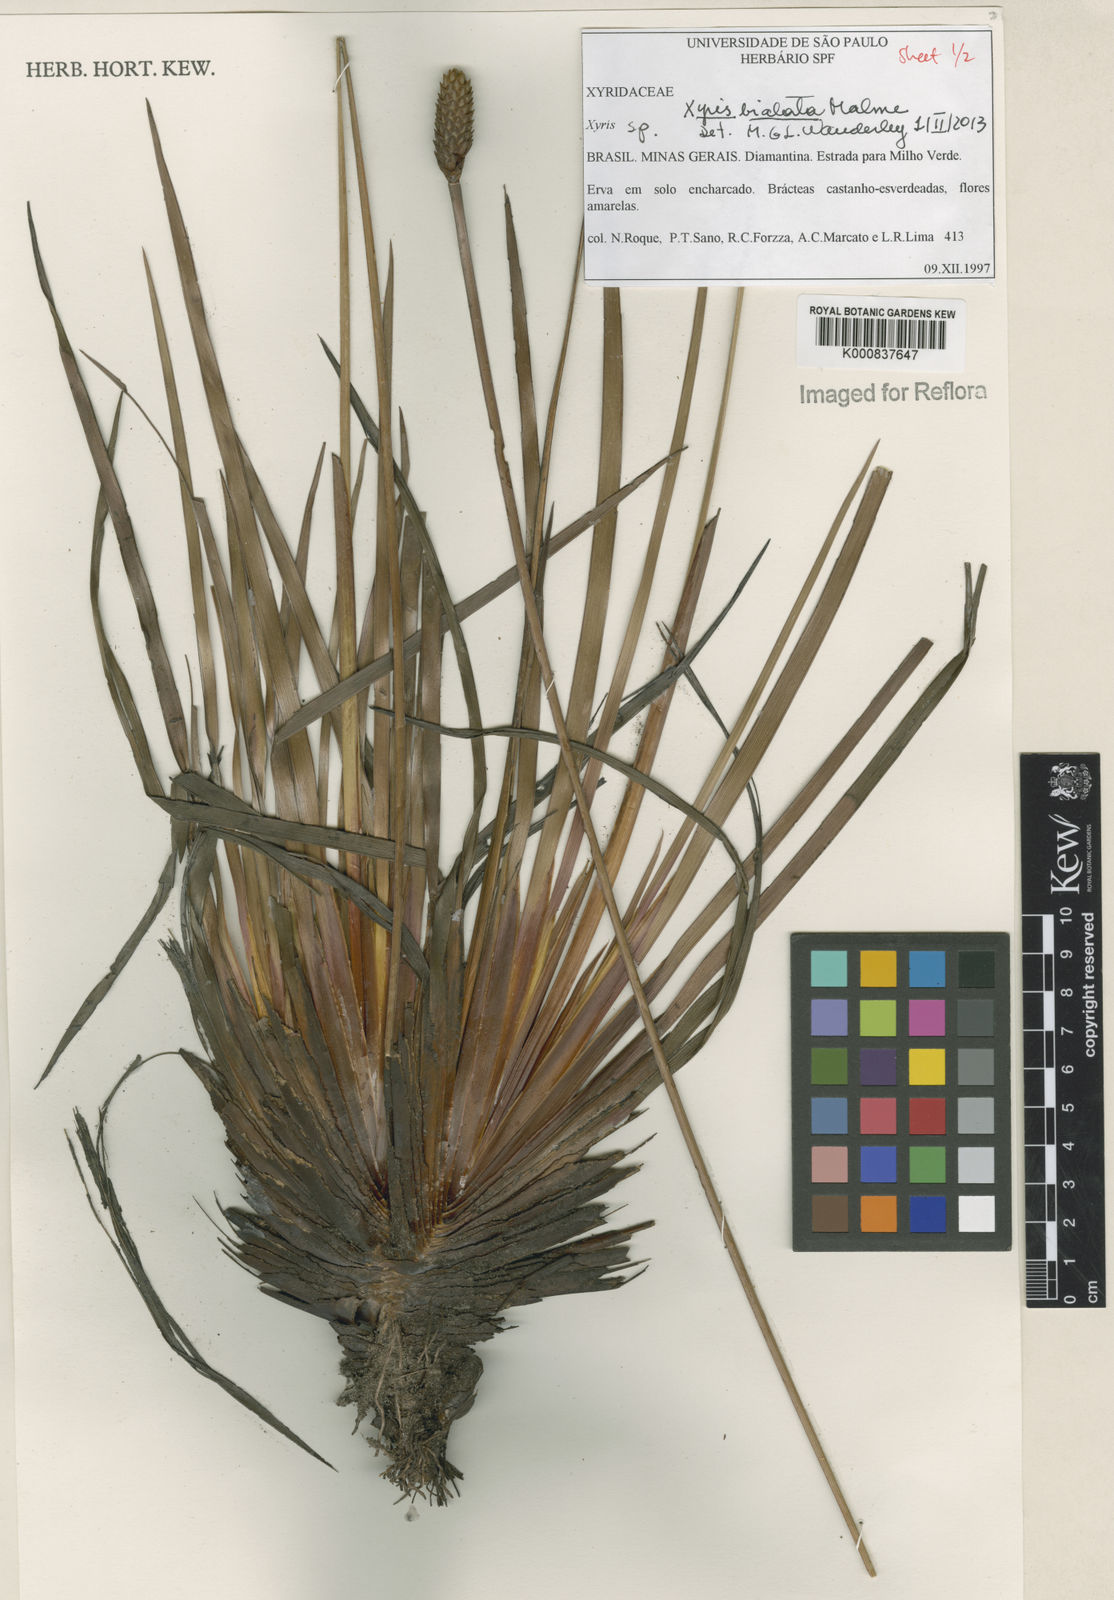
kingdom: Plantae
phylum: Tracheophyta
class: Liliopsida
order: Poales
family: Xyridaceae
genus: Xyris
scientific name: Xyris bialata
